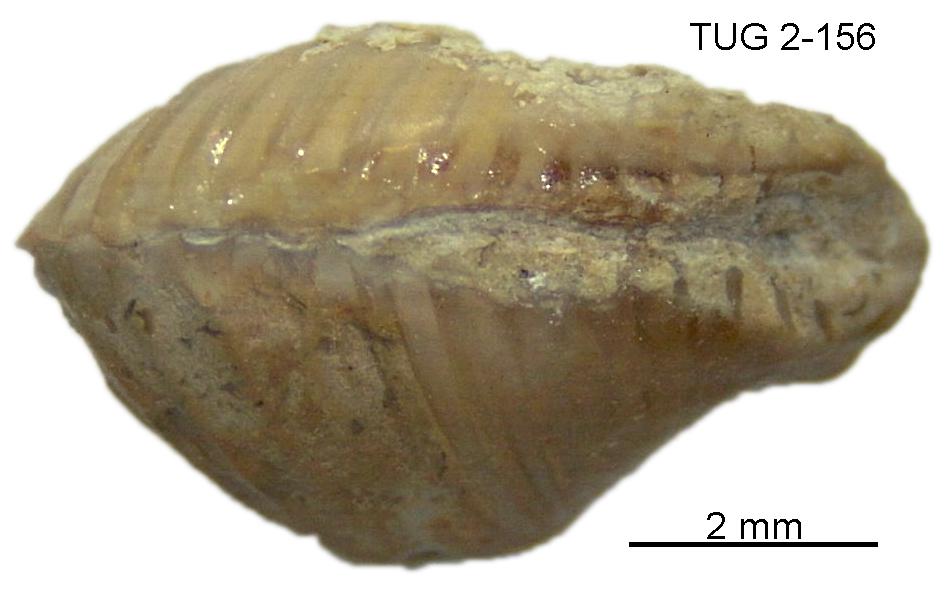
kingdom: Animalia
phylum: Mollusca
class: Rostroconchia
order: Conocardiida
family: Bransoniidae
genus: Mulceodens
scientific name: Mulceodens jaanussoni
